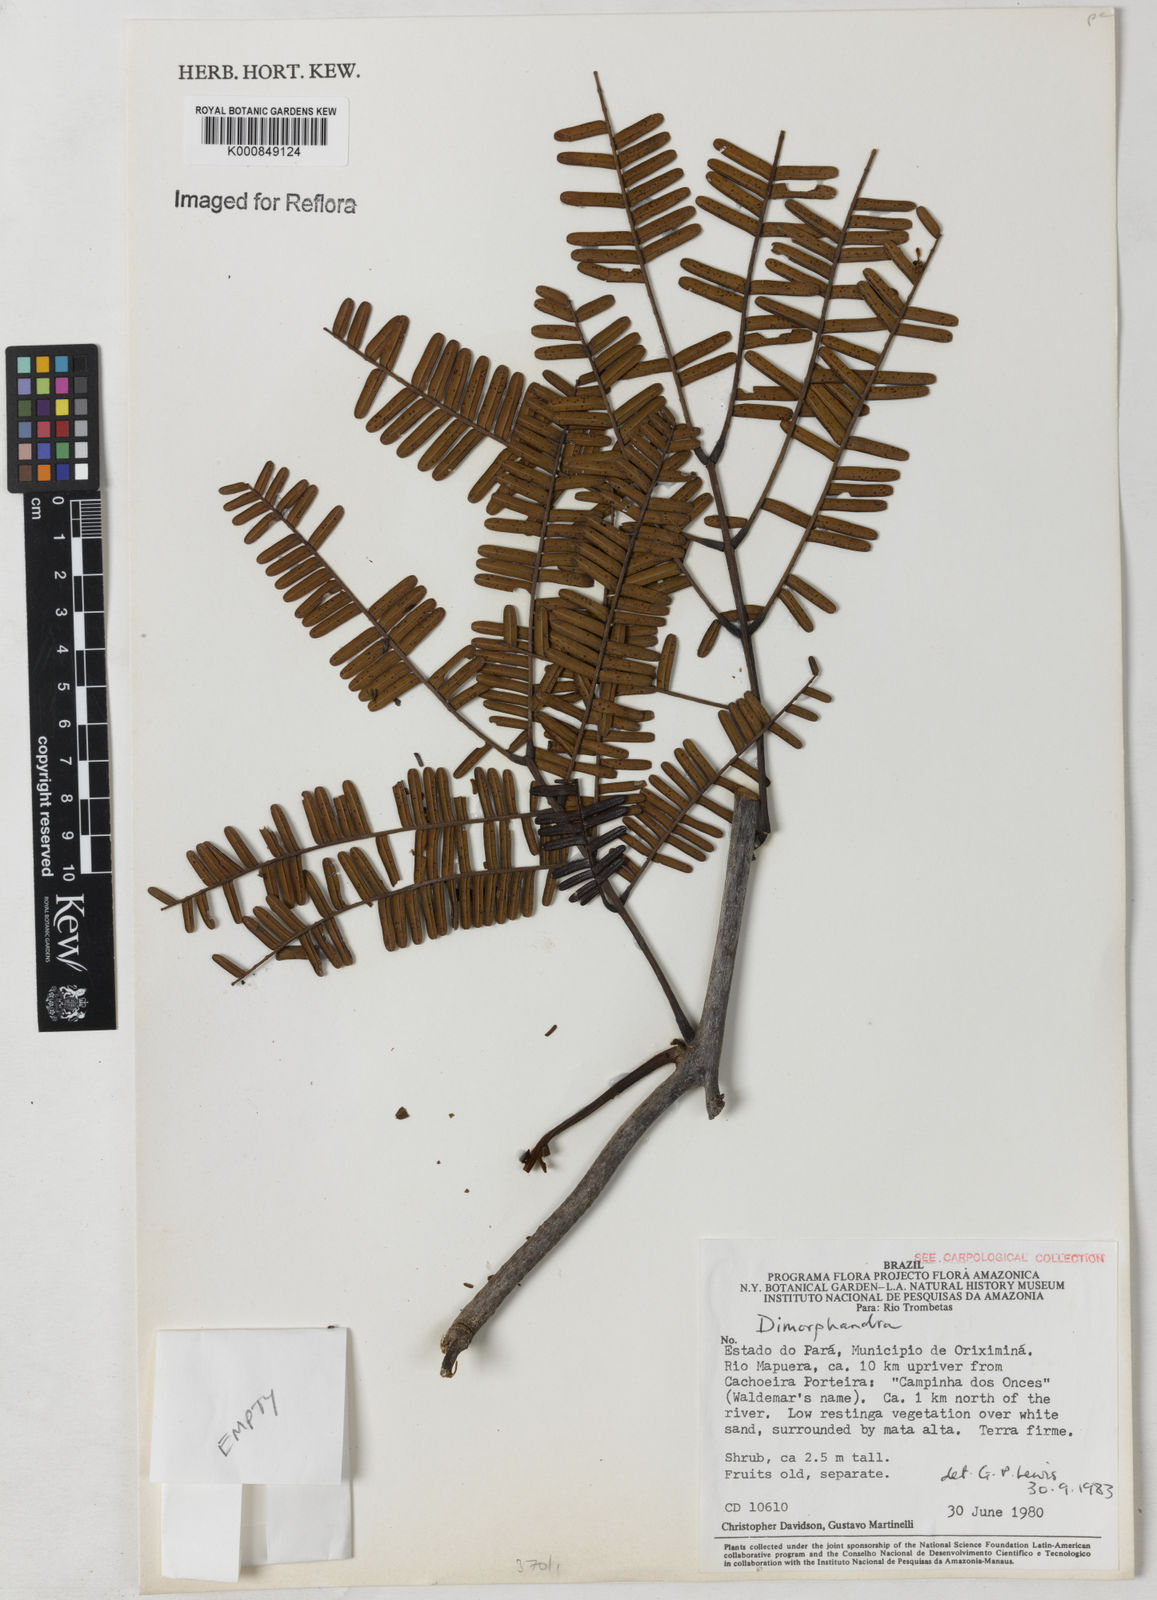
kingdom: Plantae
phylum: Tracheophyta
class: Magnoliopsida
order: Fabales
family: Fabaceae
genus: Dimorphandra
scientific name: Dimorphandra
